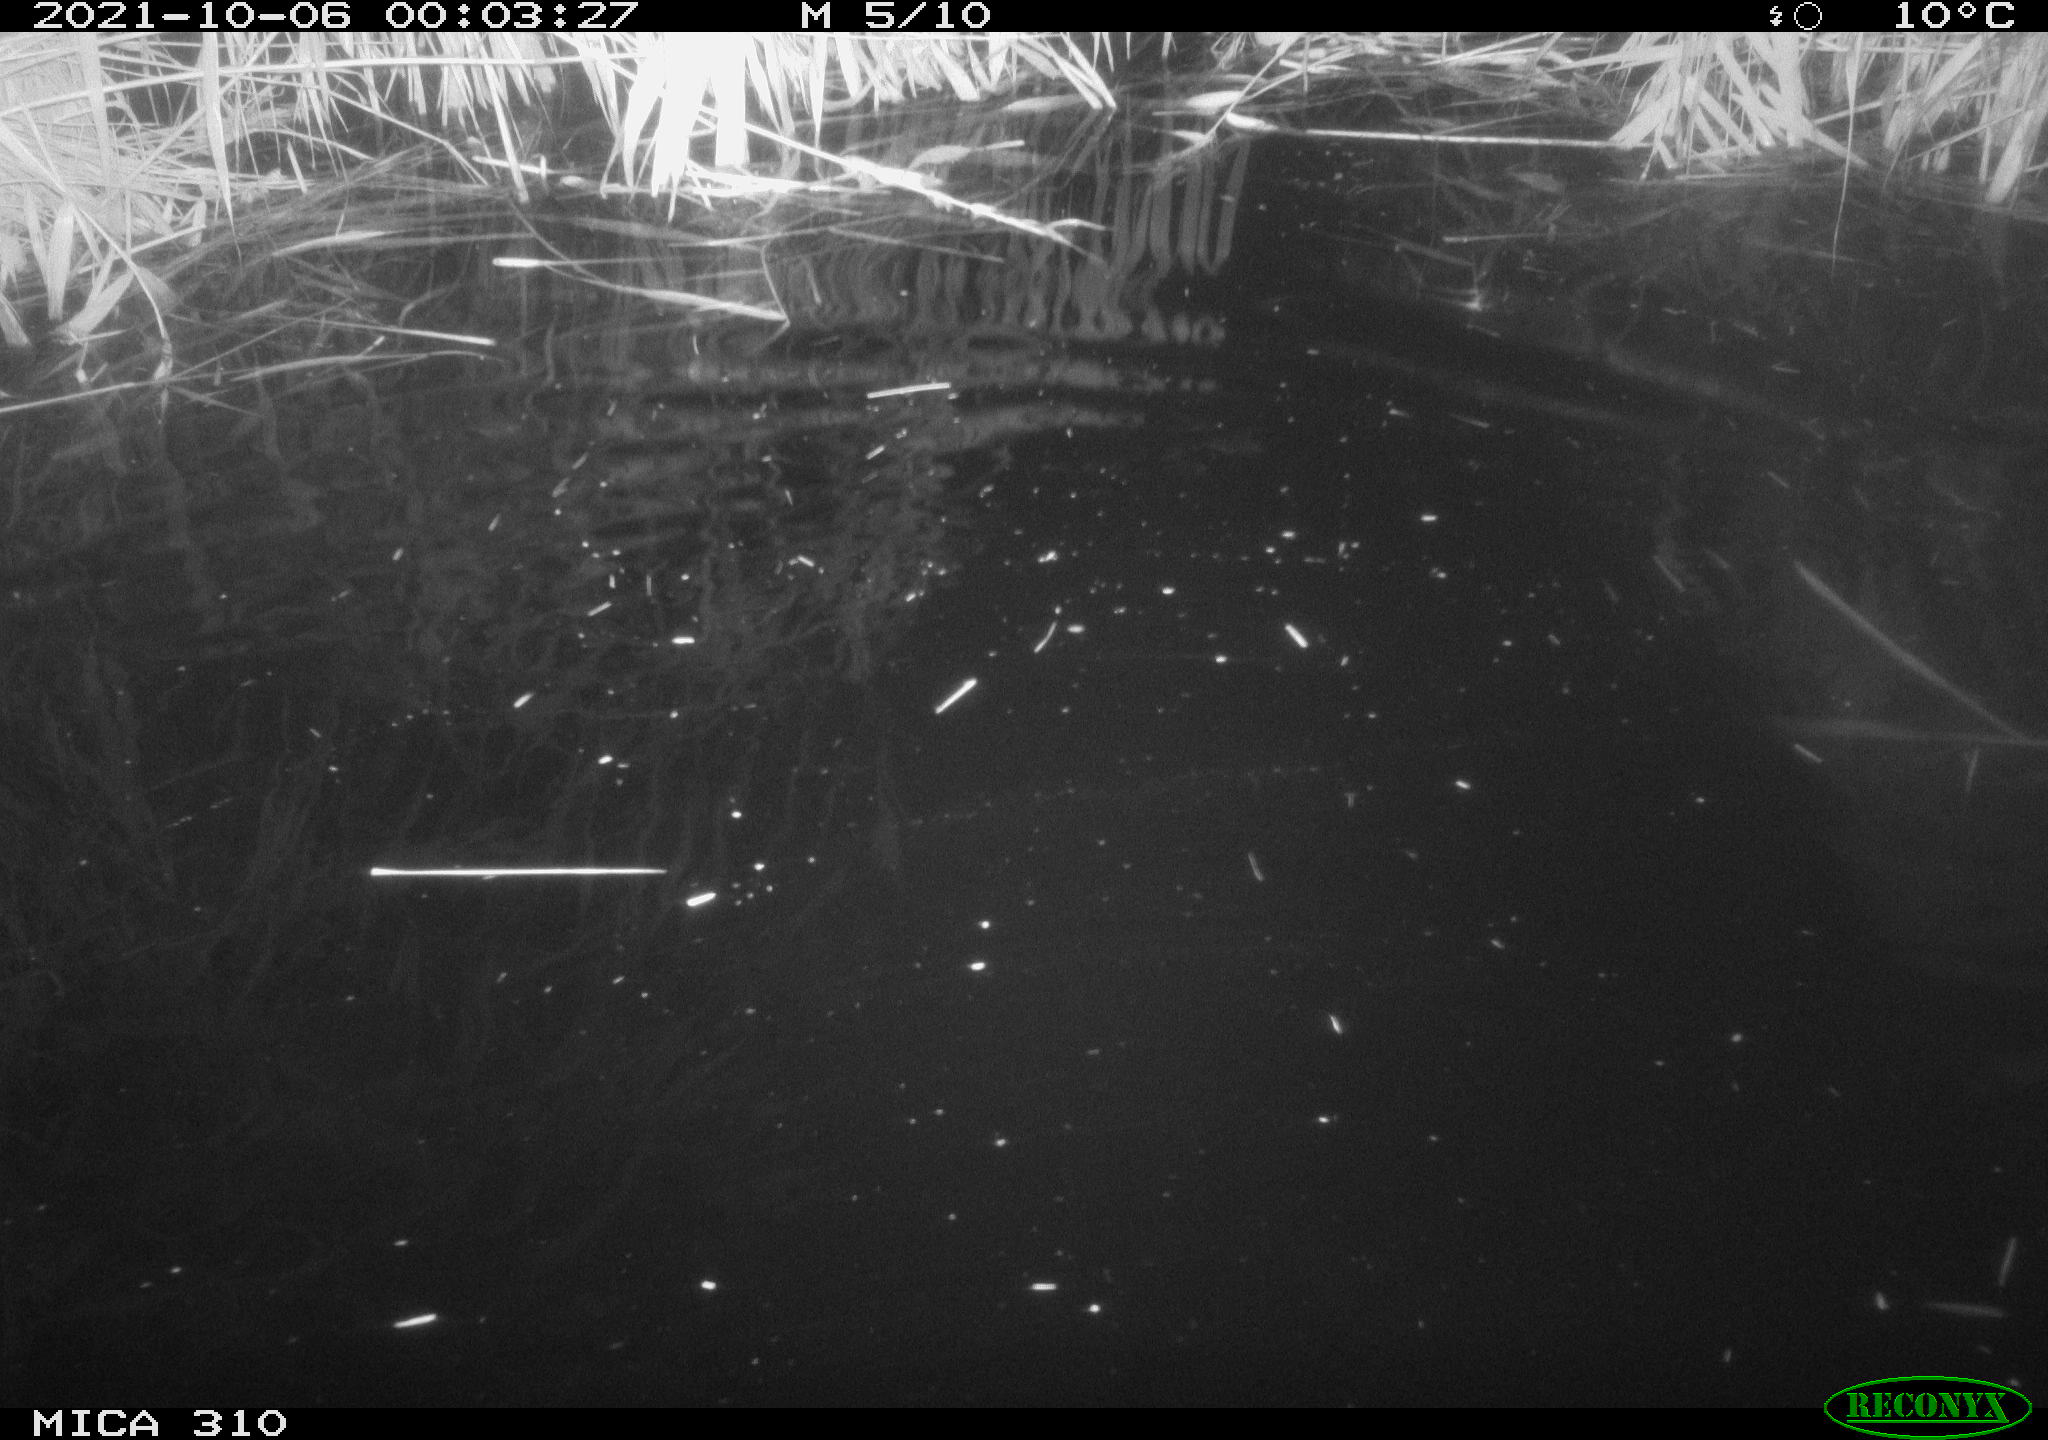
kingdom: Animalia
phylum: Chordata
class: Mammalia
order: Rodentia
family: Muridae
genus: Rattus
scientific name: Rattus norvegicus
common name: Brown rat
